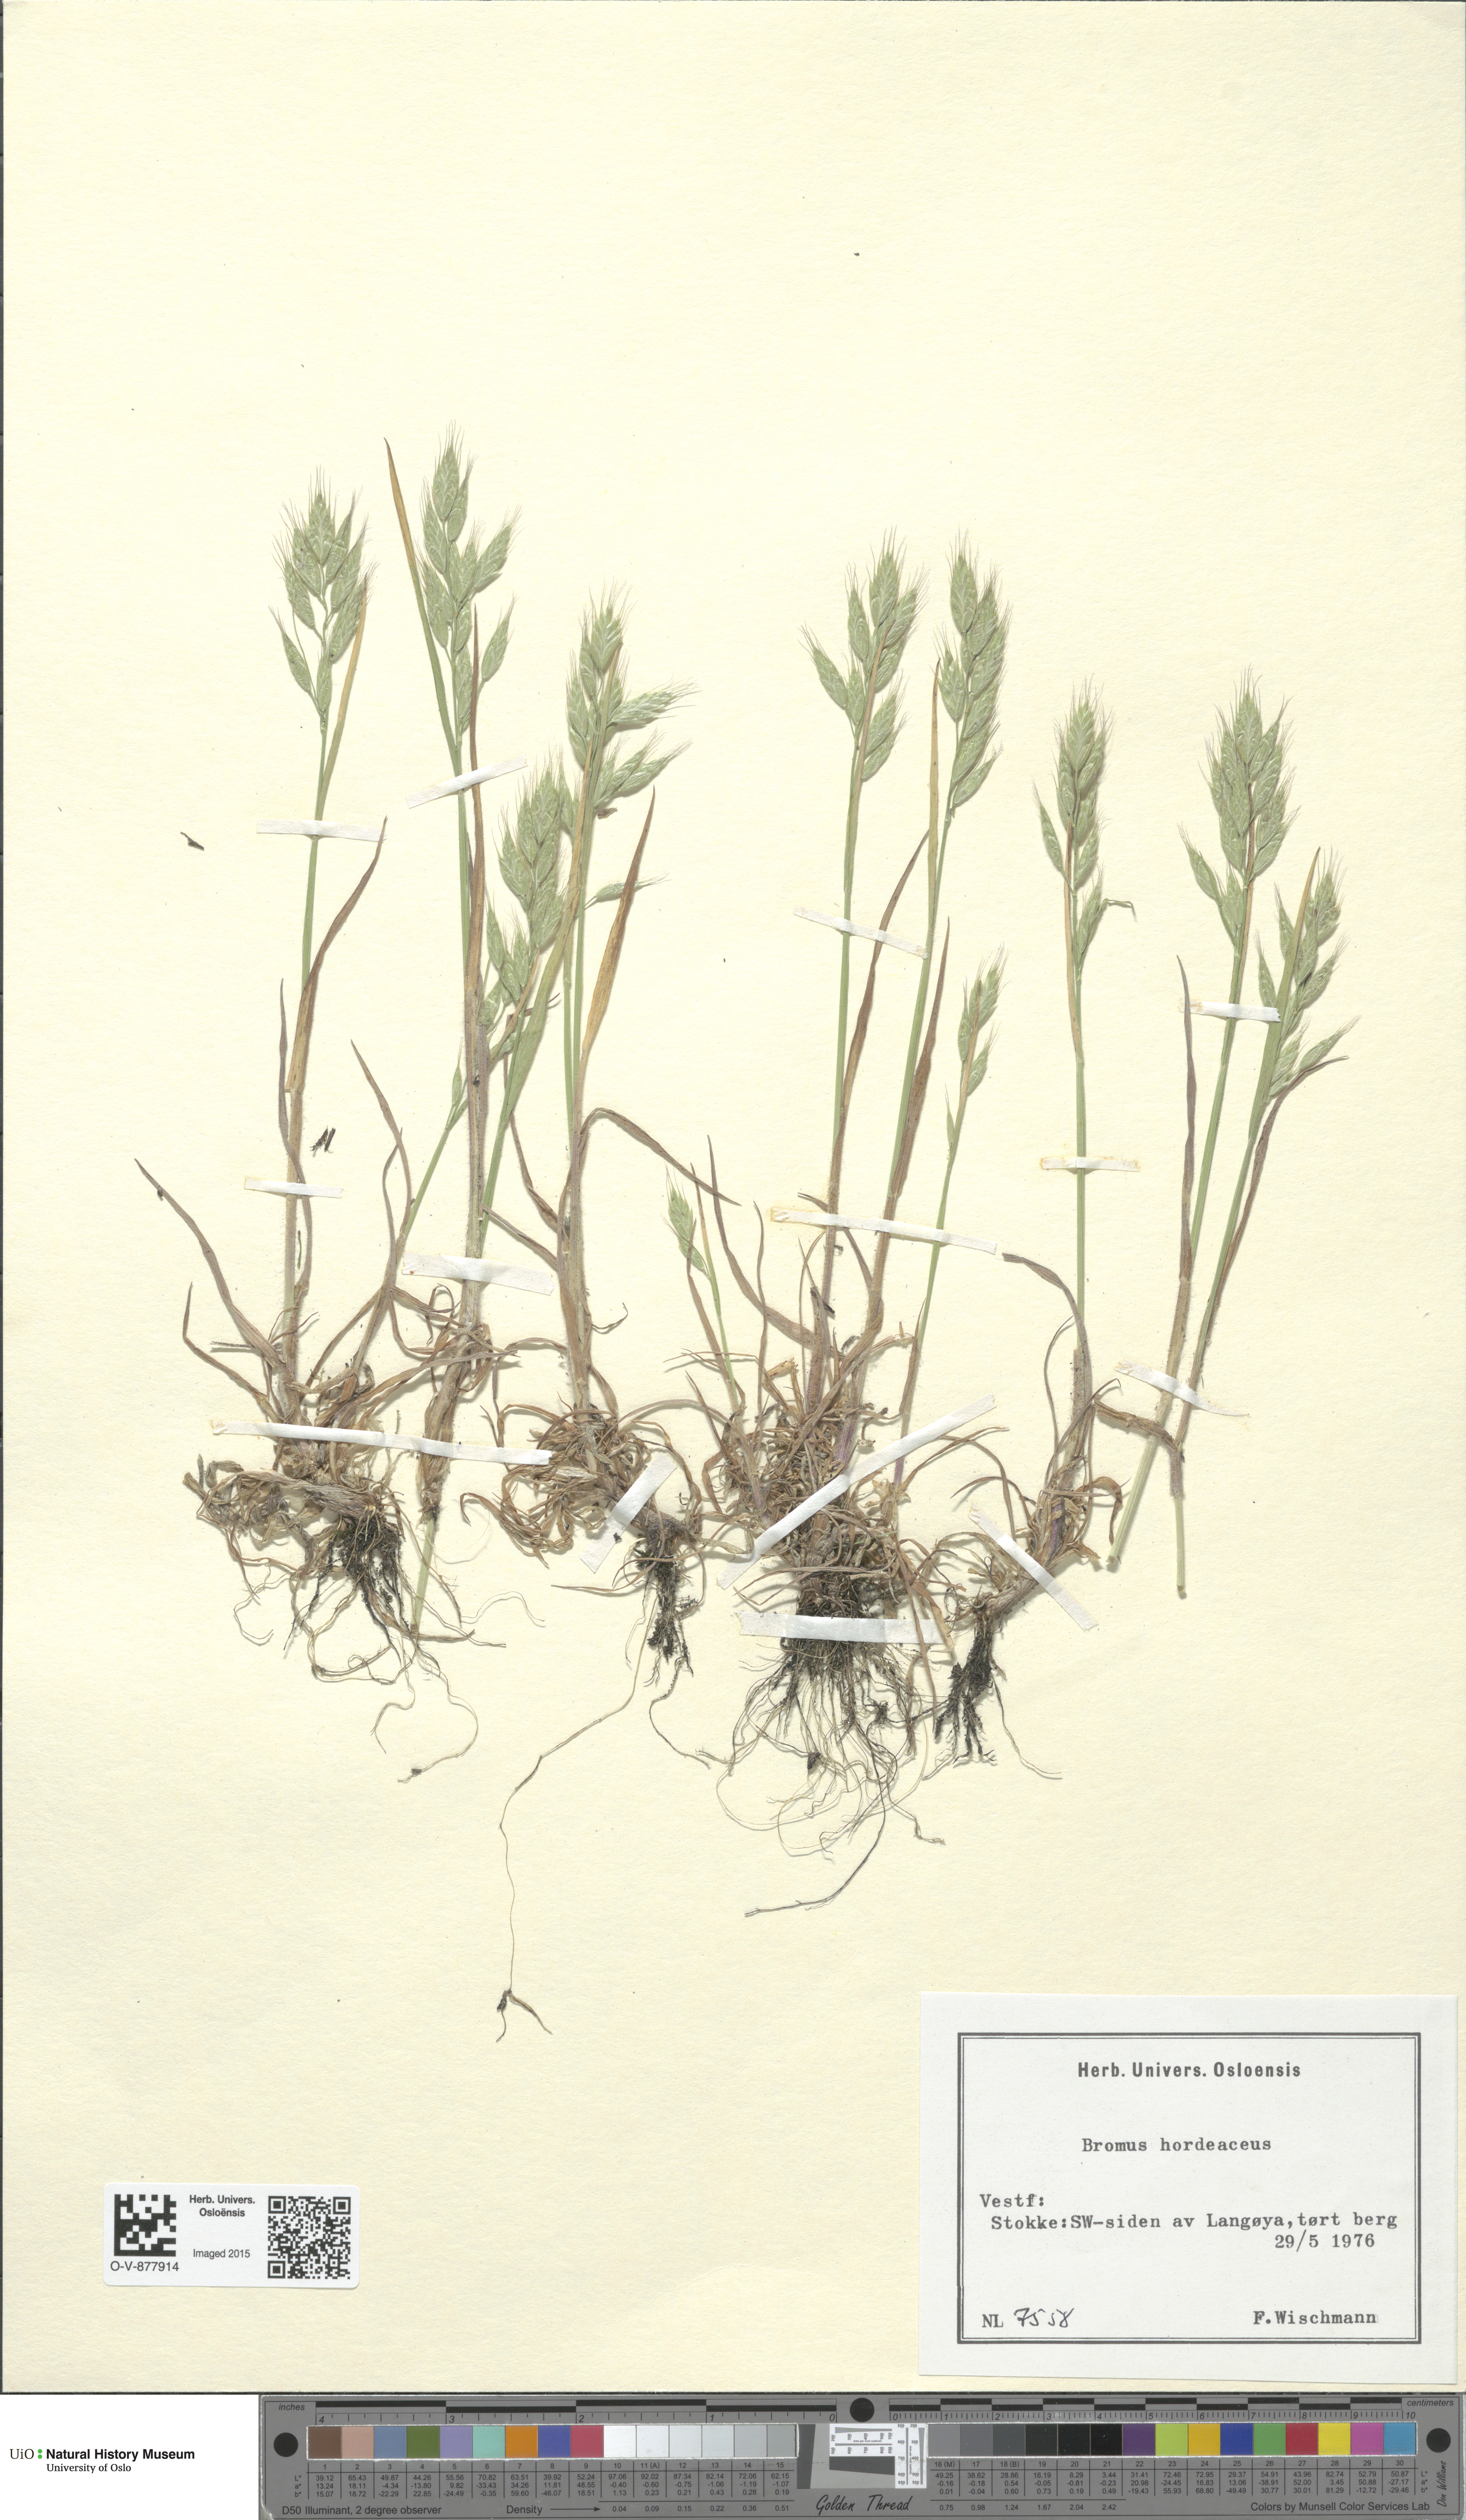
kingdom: Plantae
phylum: Tracheophyta
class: Liliopsida
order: Poales
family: Poaceae
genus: Bromus
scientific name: Bromus hordeaceus
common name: Soft brome
